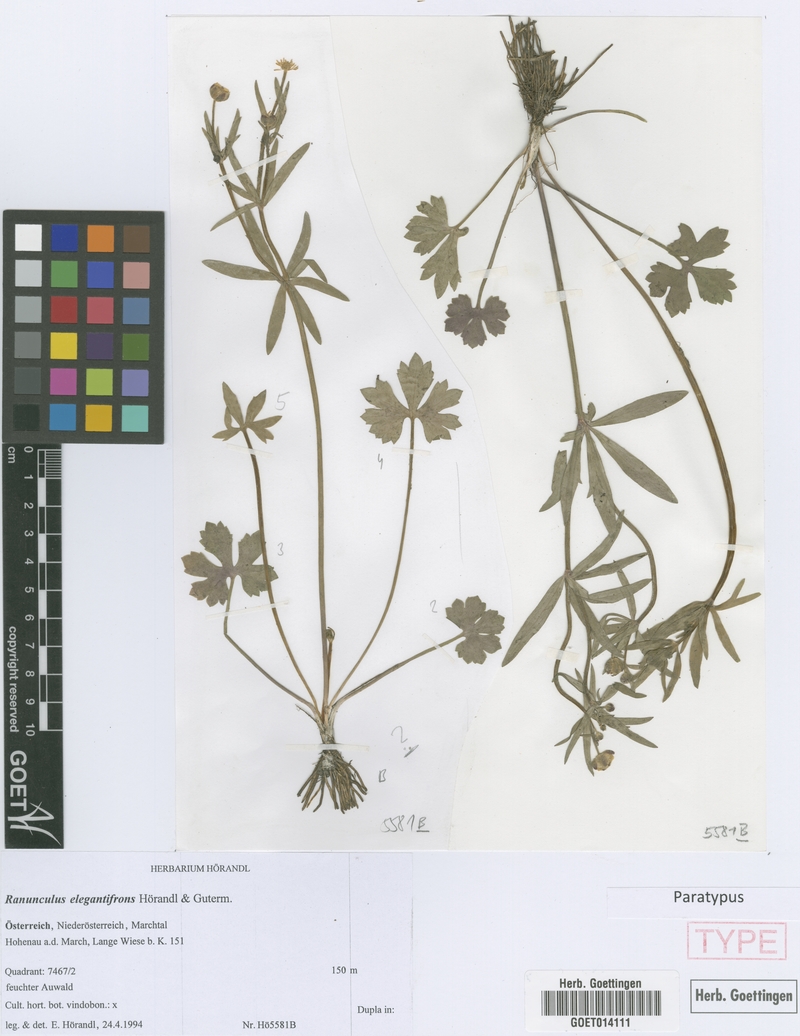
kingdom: Plantae
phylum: Tracheophyta
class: Magnoliopsida
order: Ranunculales
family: Ranunculaceae
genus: Ranunculus
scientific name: Ranunculus elegantifrons
